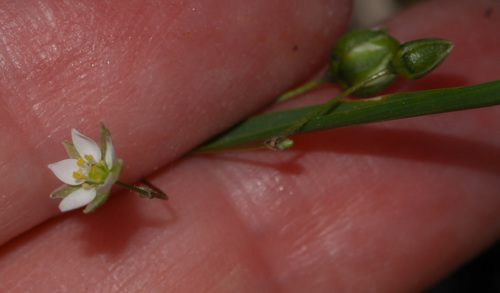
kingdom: Plantae
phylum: Tracheophyta
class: Magnoliopsida
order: Caryophyllales
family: Caryophyllaceae
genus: Spergula
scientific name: Spergula arvensis
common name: Corn spurrey
